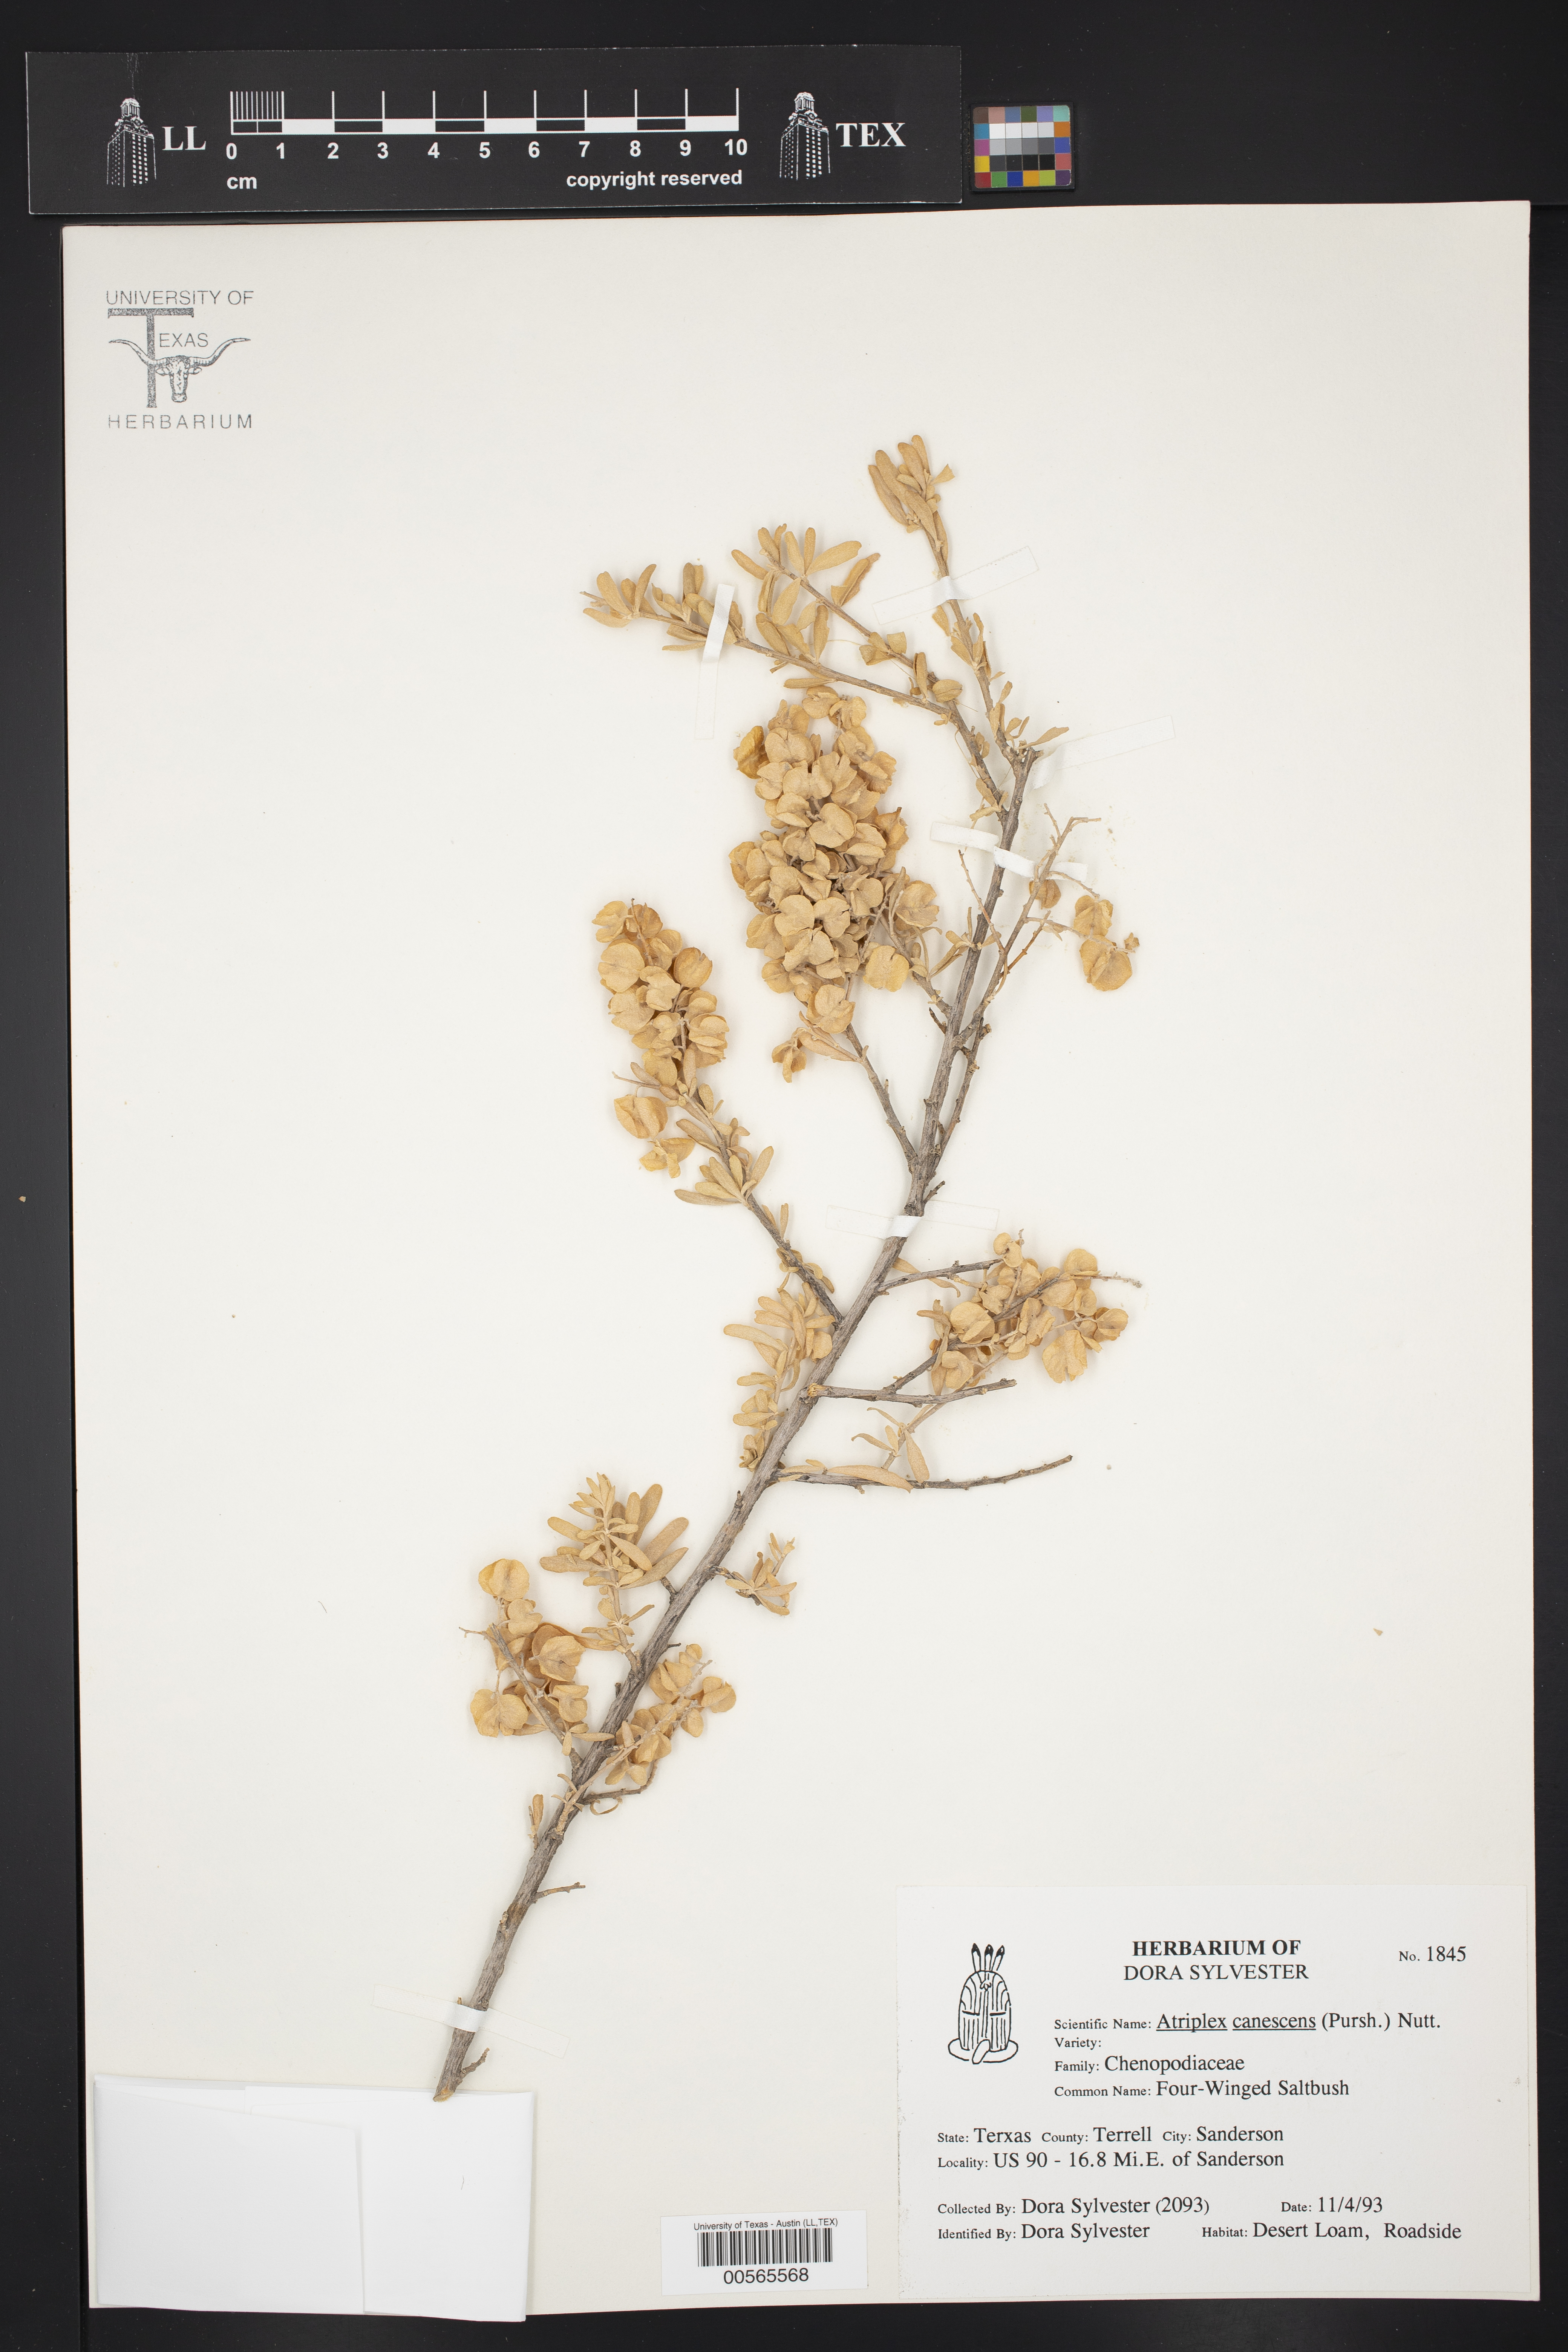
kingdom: Plantae
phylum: Tracheophyta
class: Magnoliopsida
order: Caryophyllales
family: Amaranthaceae
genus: Atriplex
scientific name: Atriplex canescens
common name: Four-wing saltbush
